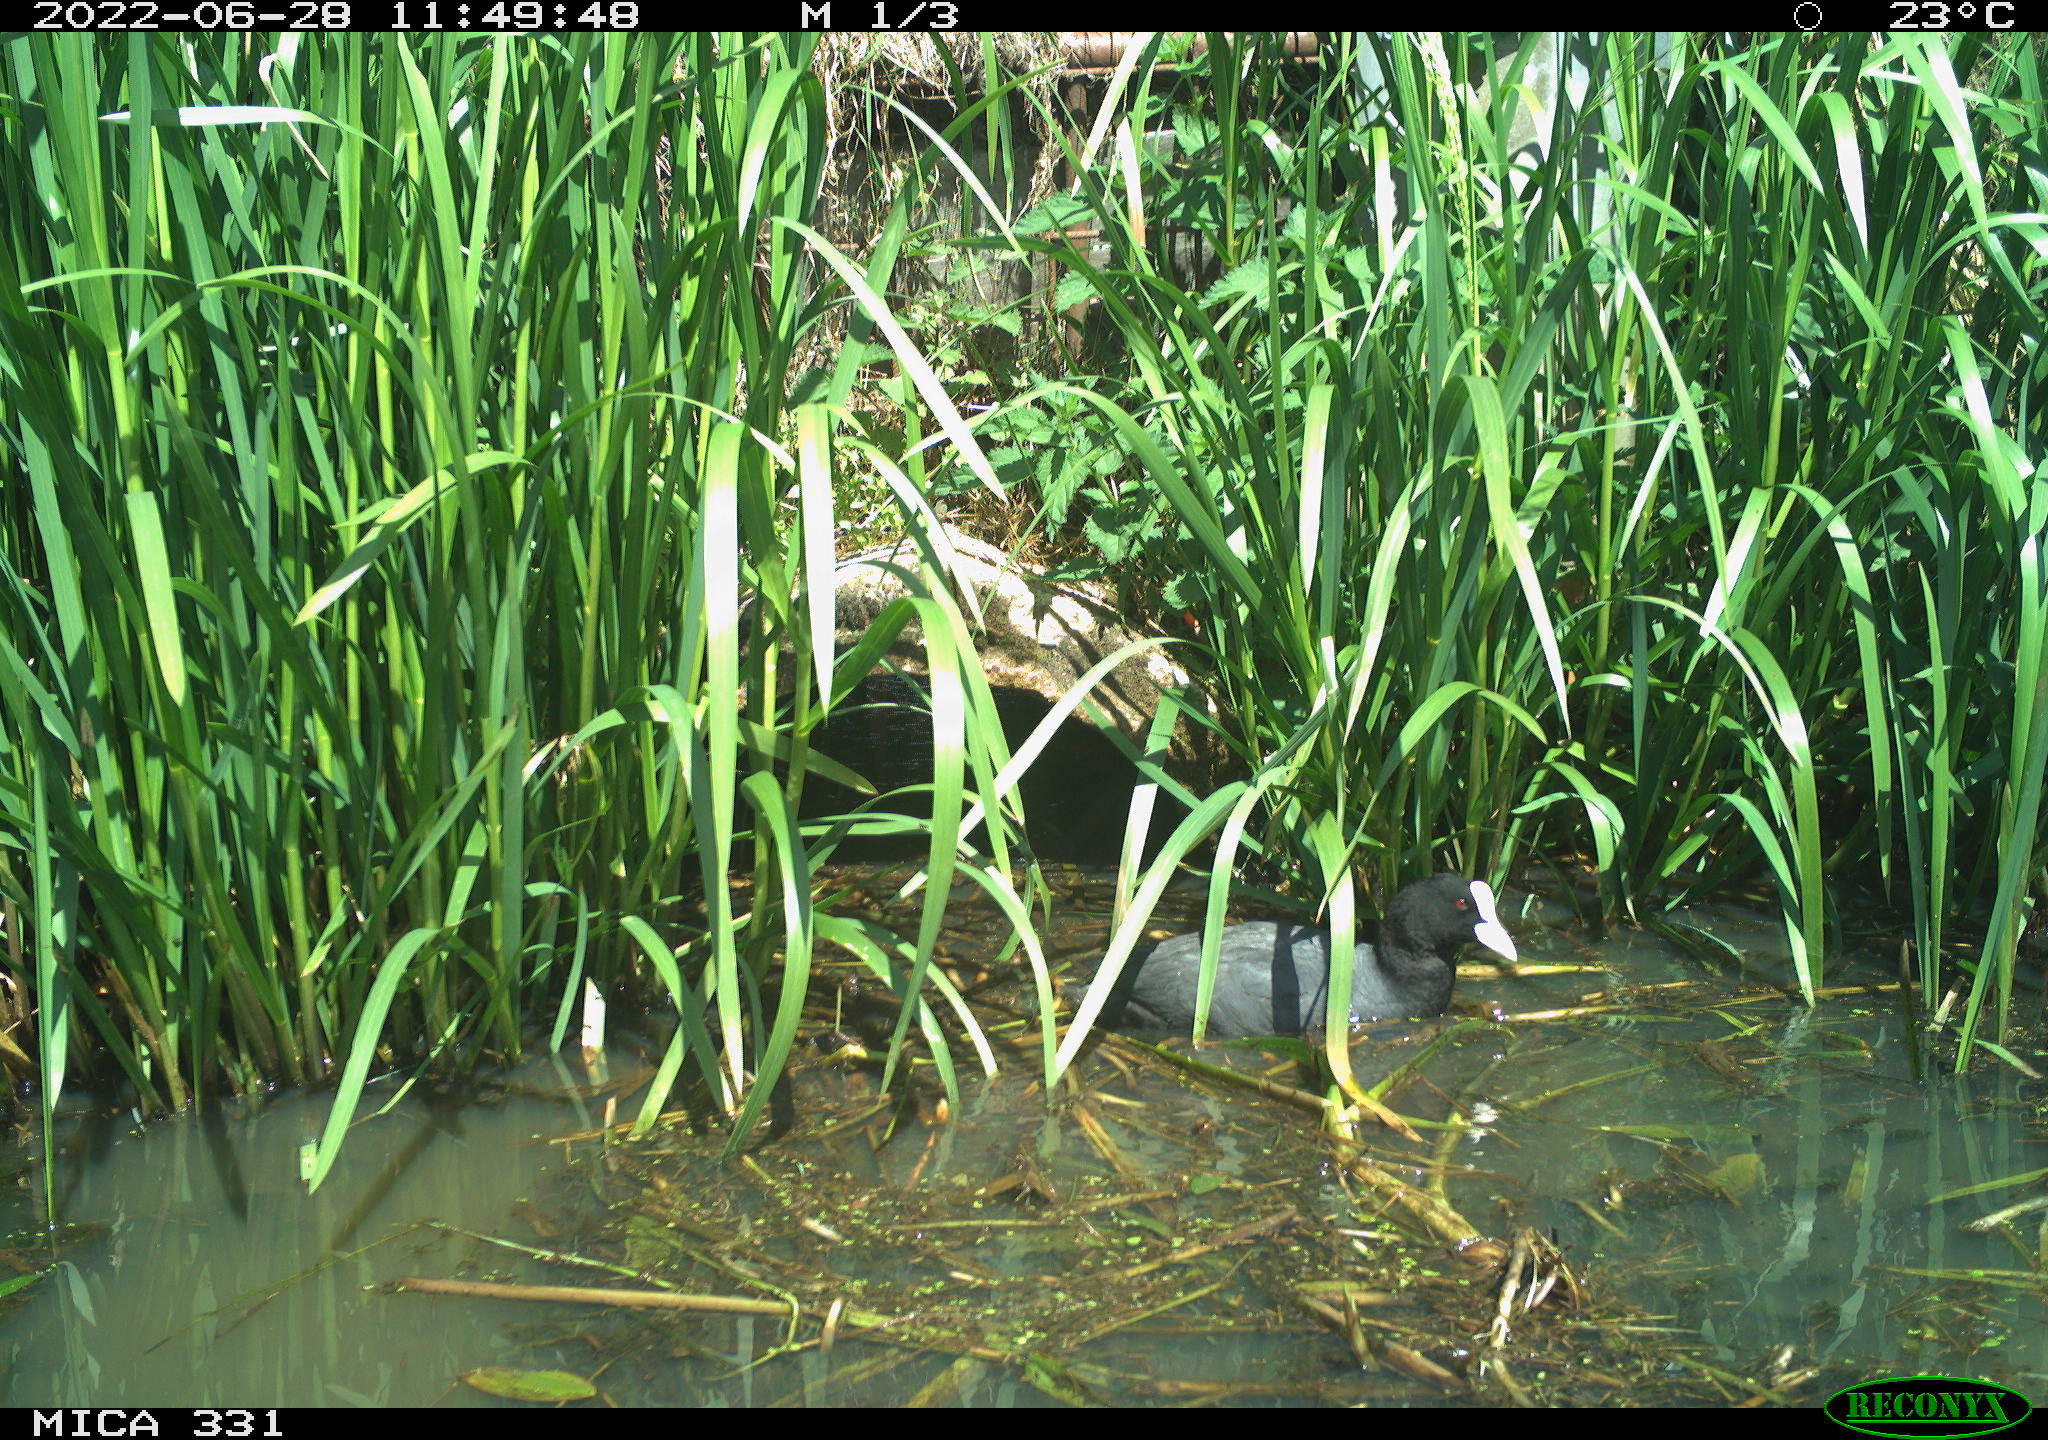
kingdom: Animalia
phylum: Chordata
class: Aves
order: Gruiformes
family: Rallidae
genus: Fulica
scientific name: Fulica atra
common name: Eurasian coot
